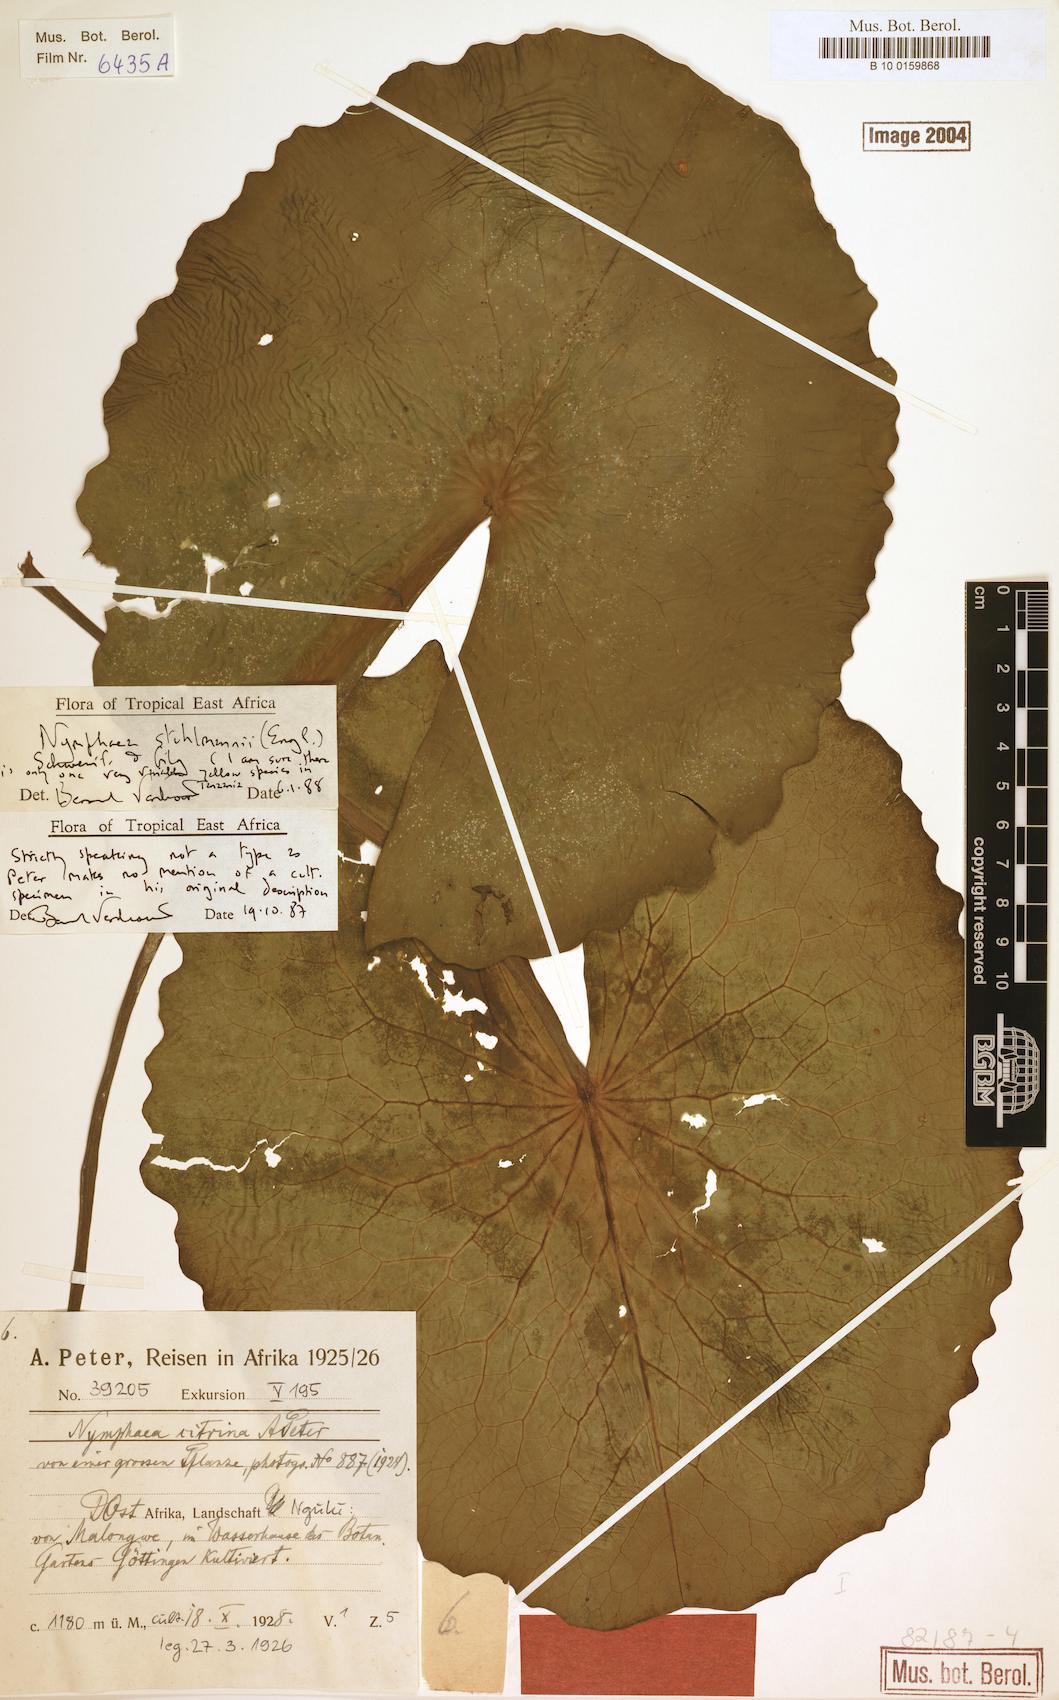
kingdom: Plantae
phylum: Tracheophyta
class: Magnoliopsida
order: Nymphaeales
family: Nymphaeaceae
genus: Nymphaea
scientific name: Nymphaea stuhlmannii
